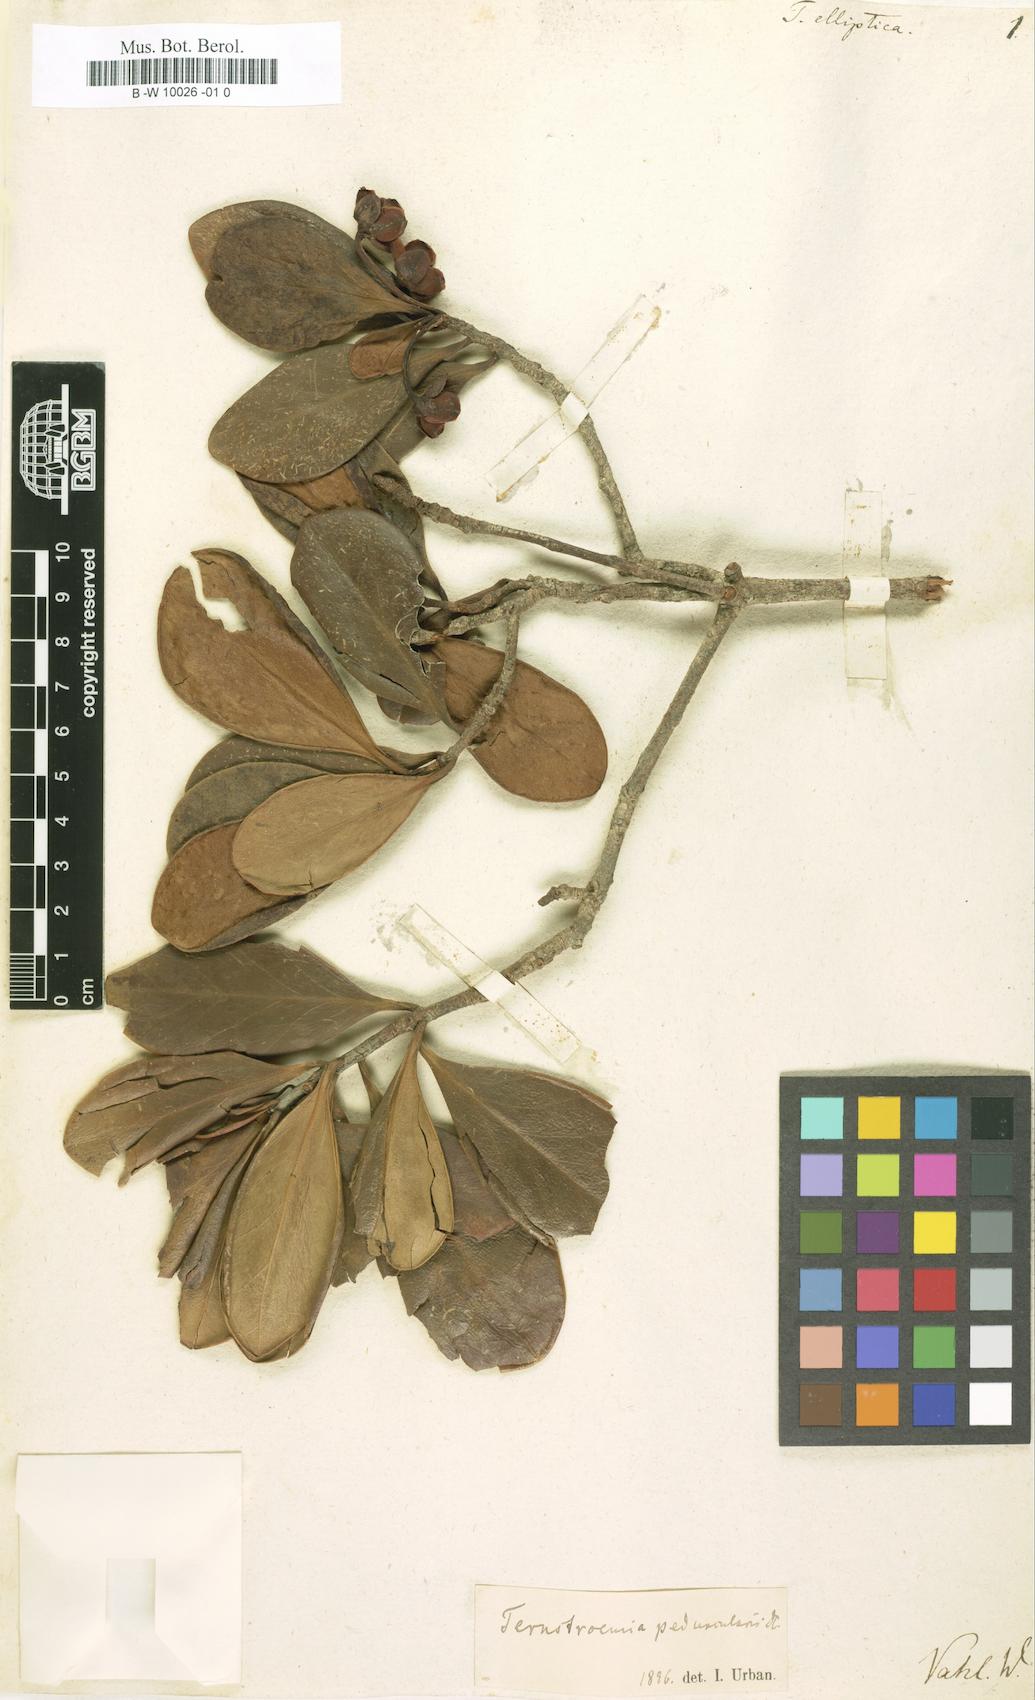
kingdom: Plantae
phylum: Tracheophyta
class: Magnoliopsida
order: Ericales
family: Pentaphylacaceae
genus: Ternstroemia
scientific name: Ternstroemia elliptica
